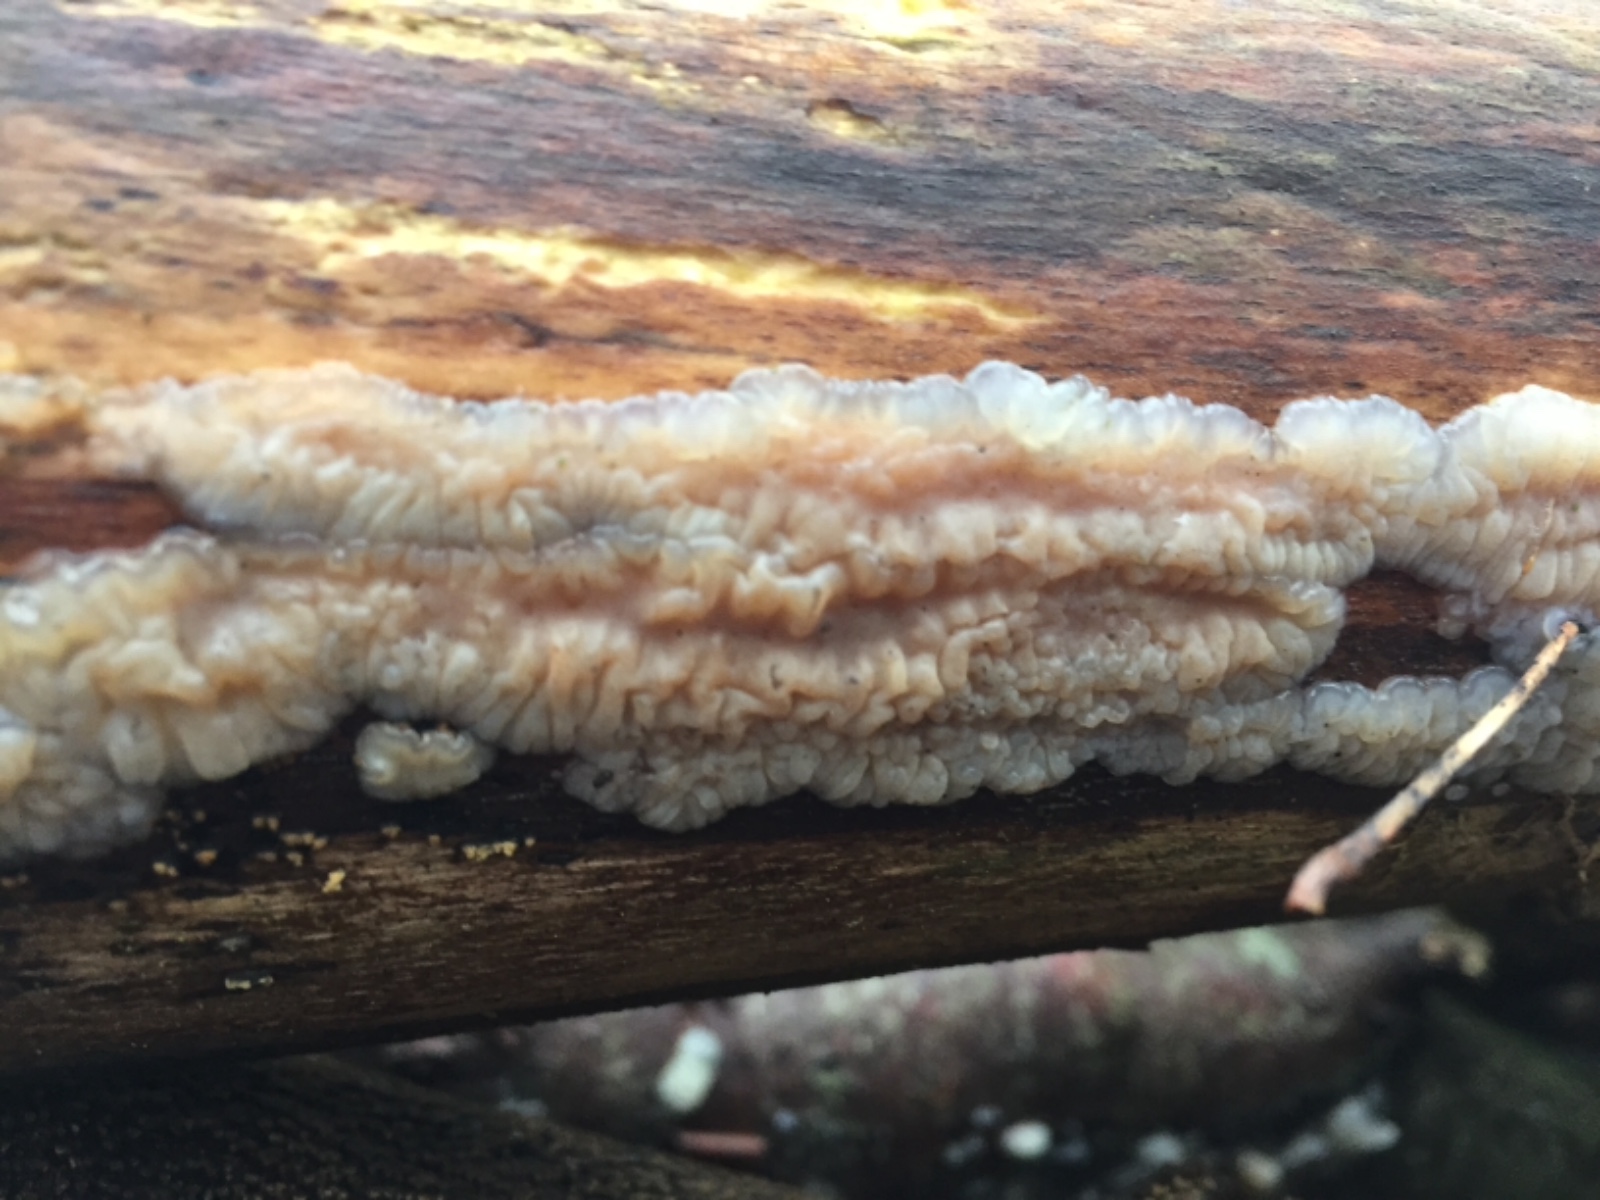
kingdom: Fungi
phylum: Basidiomycota
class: Agaricomycetes
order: Auriculariales
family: Auriculariaceae
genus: Exidia
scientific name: Exidia thuretiana
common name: hvidlig bævretop
